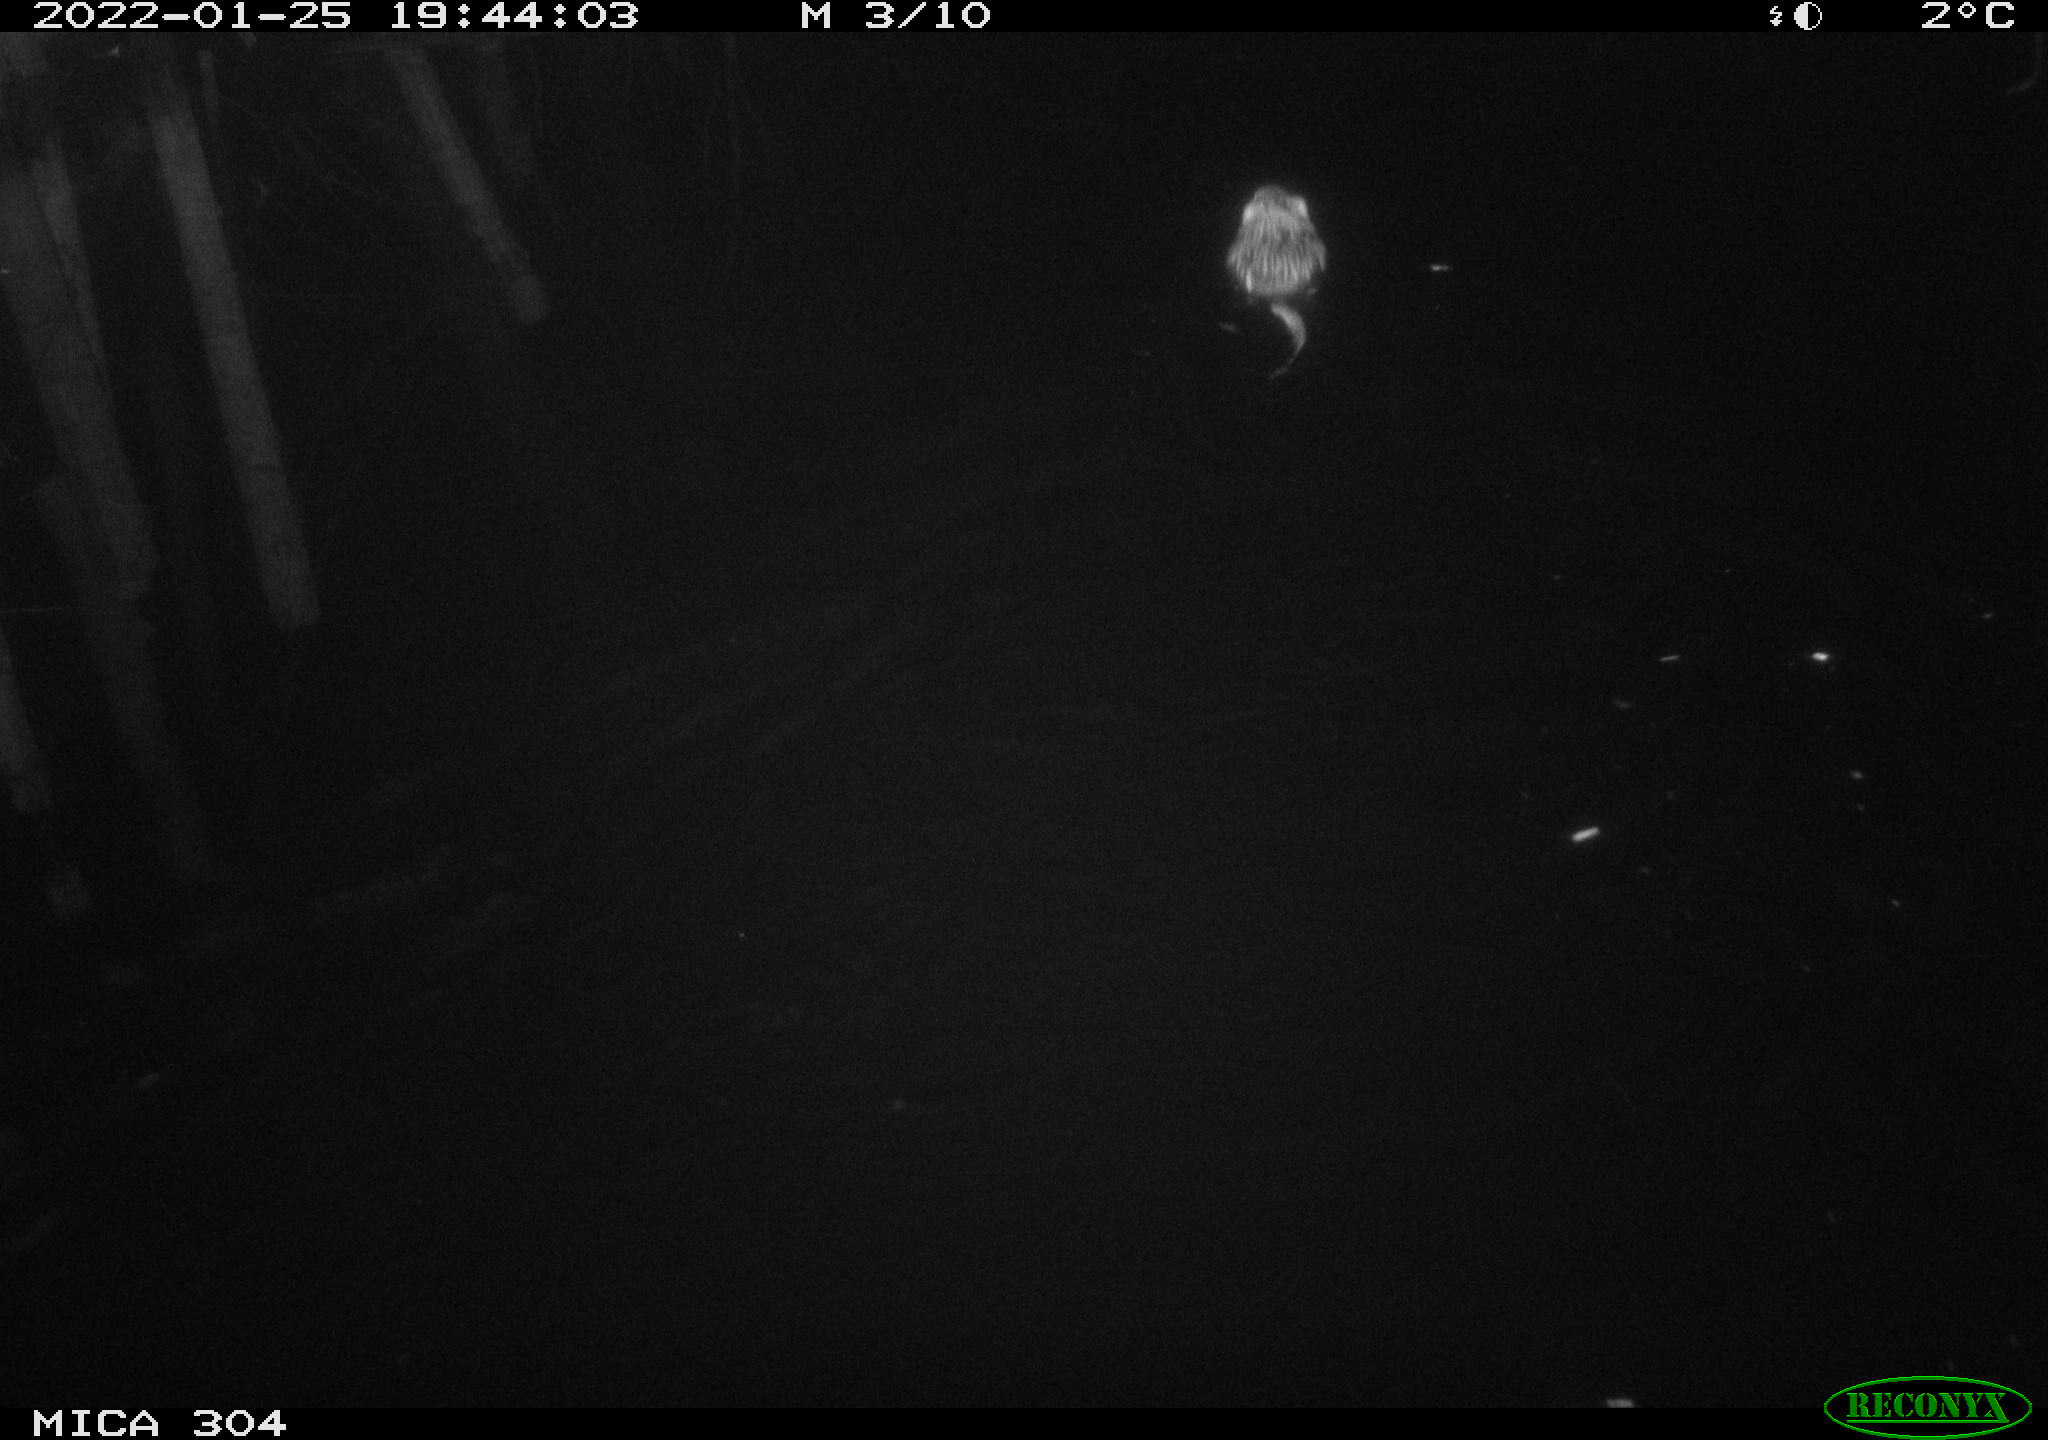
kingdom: Animalia
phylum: Chordata
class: Mammalia
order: Rodentia
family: Cricetidae
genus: Ondatra
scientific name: Ondatra zibethicus
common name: Muskrat
